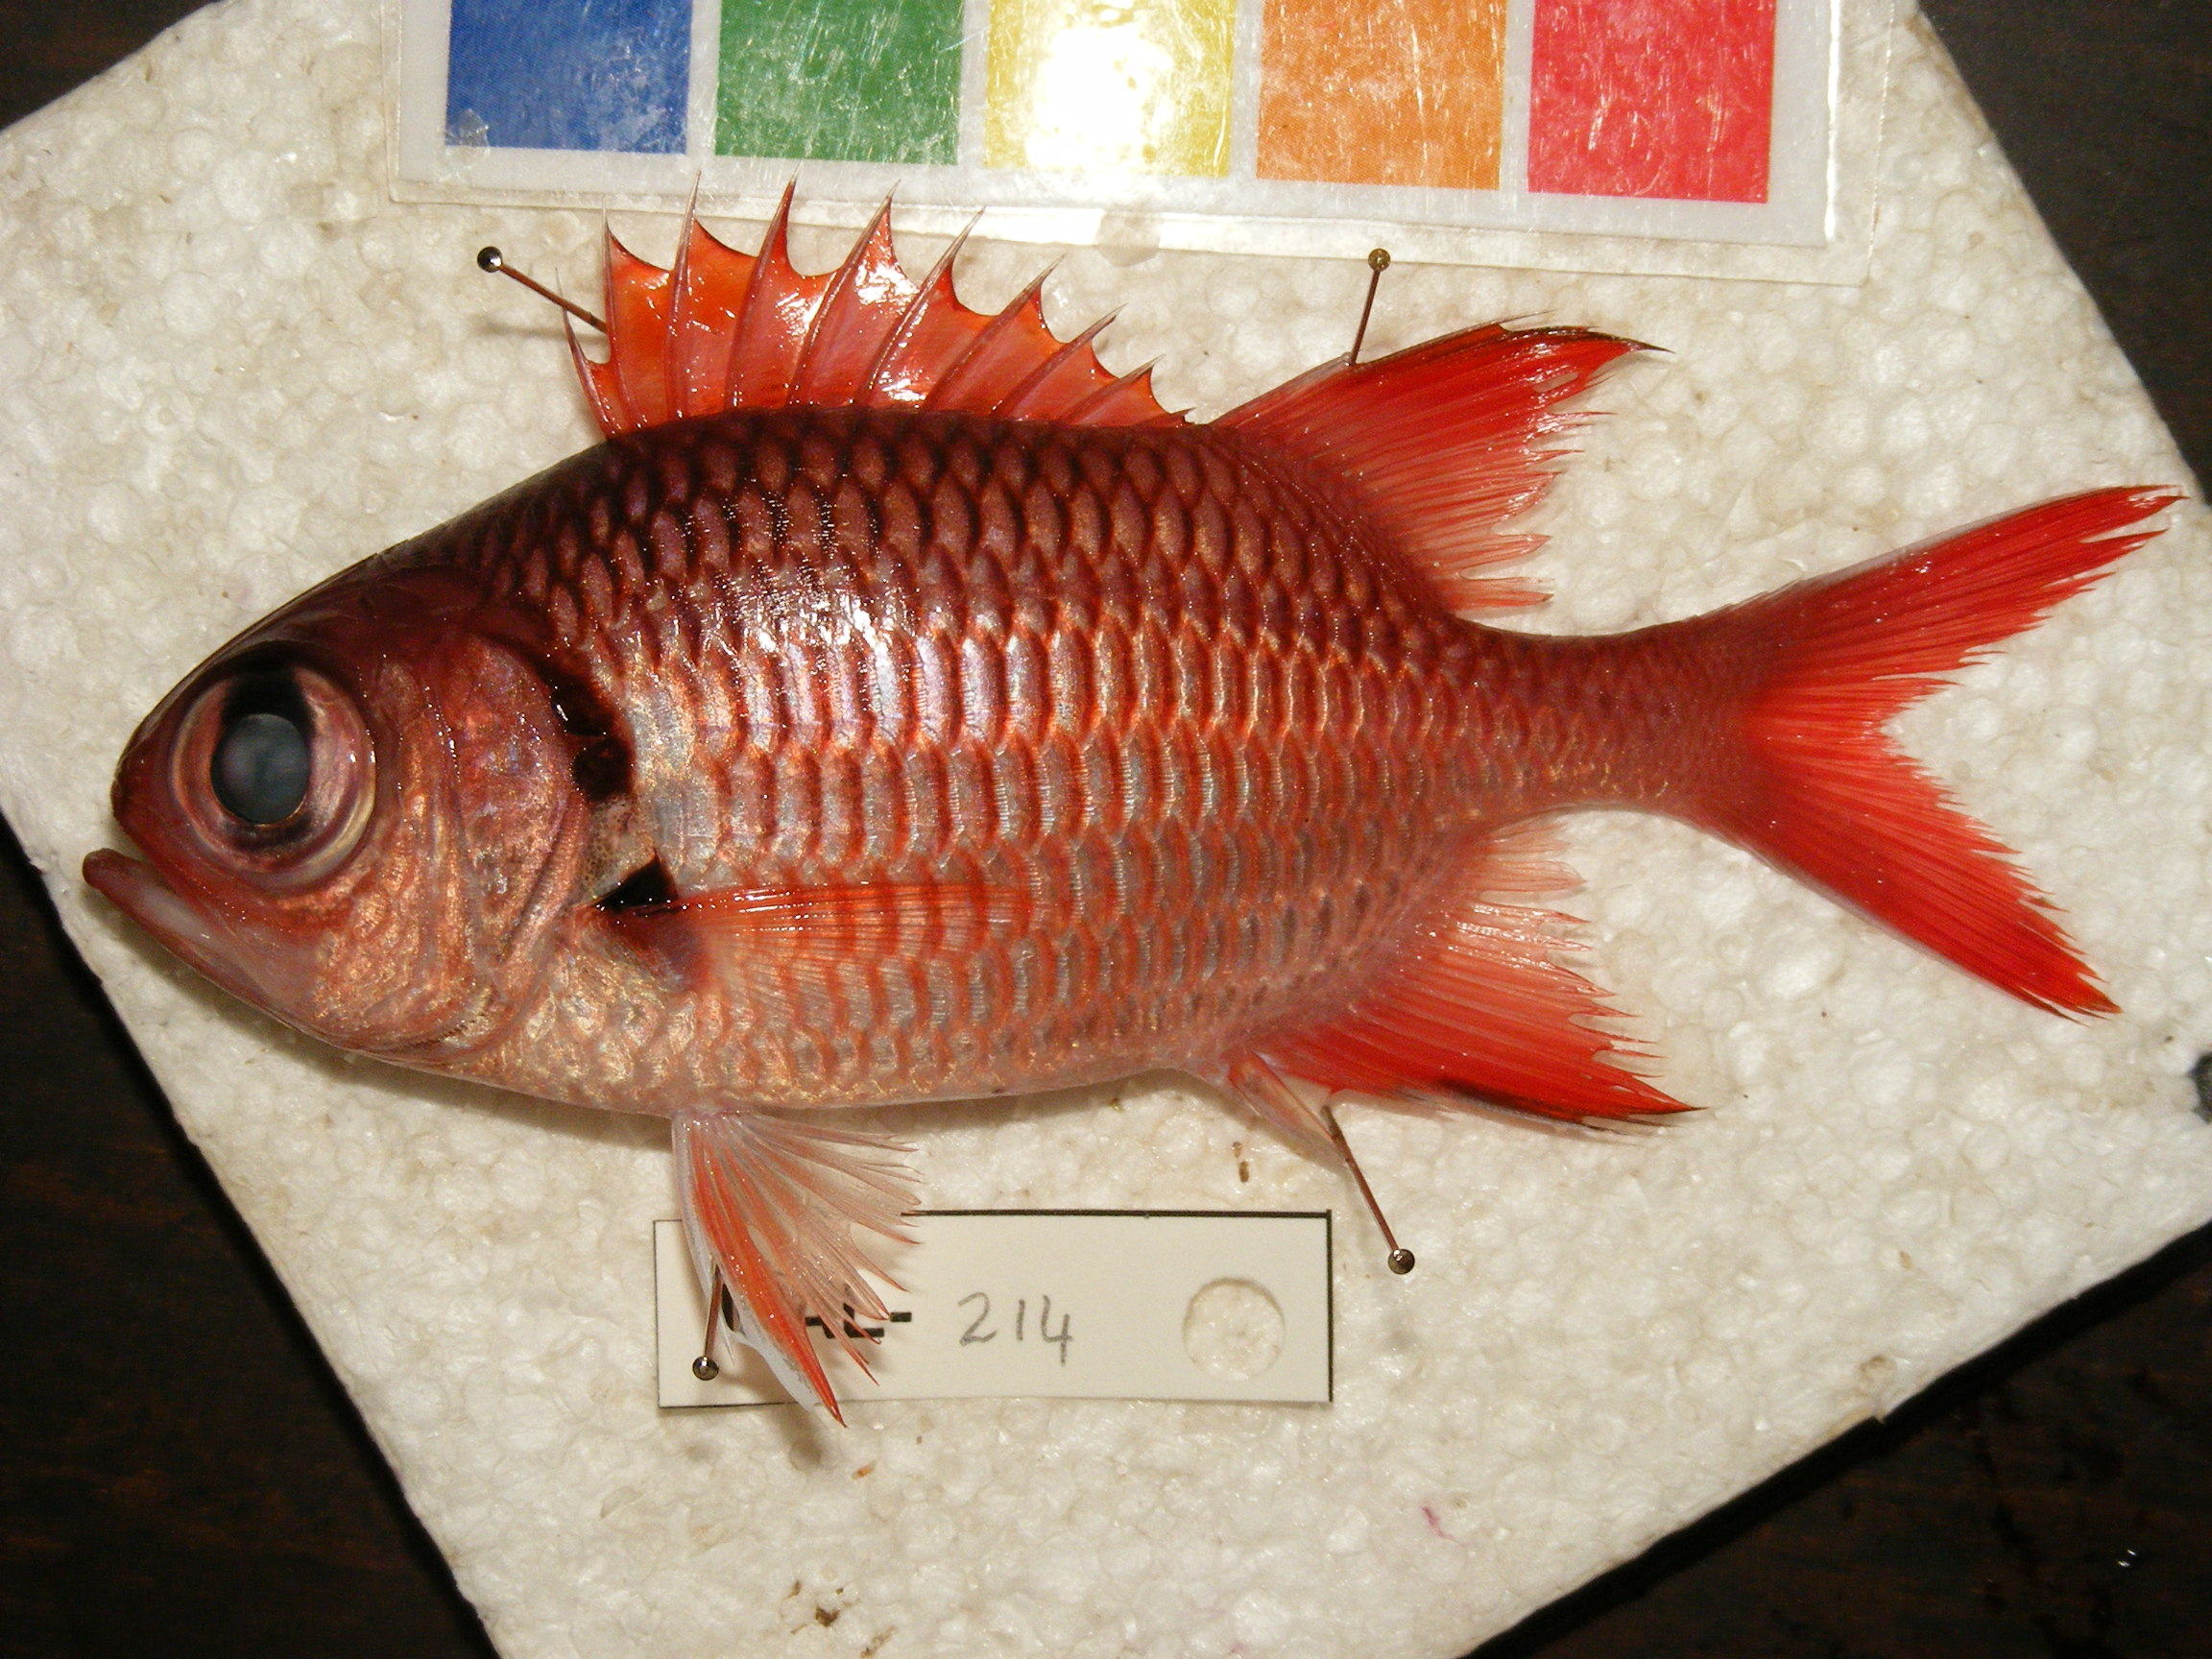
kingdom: Animalia
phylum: Chordata
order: Beryciformes
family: Holocentridae
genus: Myripristis
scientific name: Myripristis adusta
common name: Blackfin soldierfish
